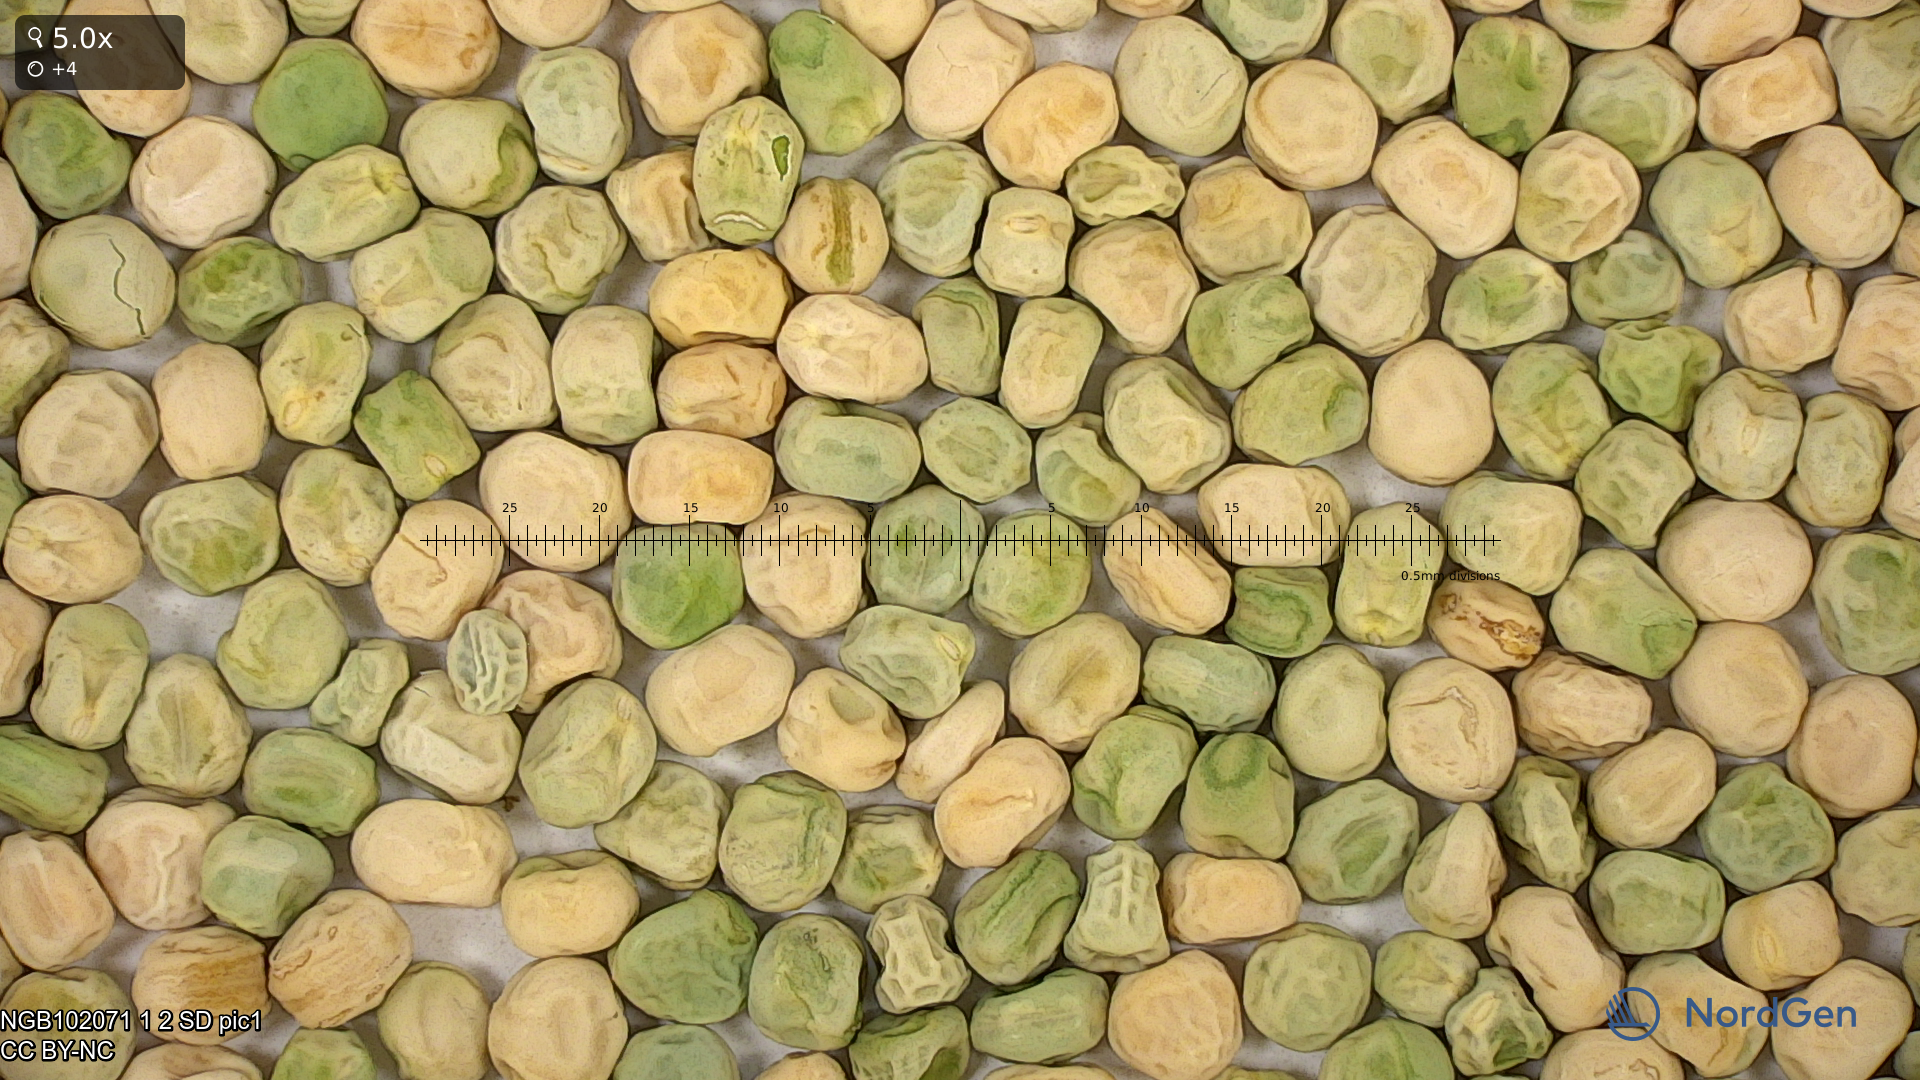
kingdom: Plantae
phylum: Tracheophyta
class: Magnoliopsida
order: Fabales
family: Fabaceae
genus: Lathyrus
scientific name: Lathyrus oleraceus
